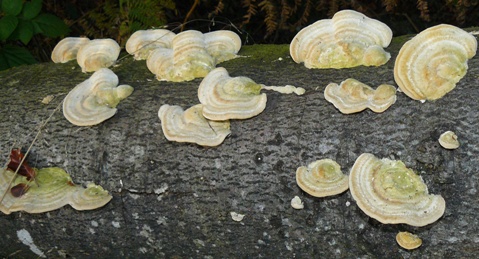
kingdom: Fungi
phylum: Basidiomycota
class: Agaricomycetes
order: Polyporales
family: Polyporaceae
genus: Trametes
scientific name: Trametes hirsuta
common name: håret læderporesvamp
